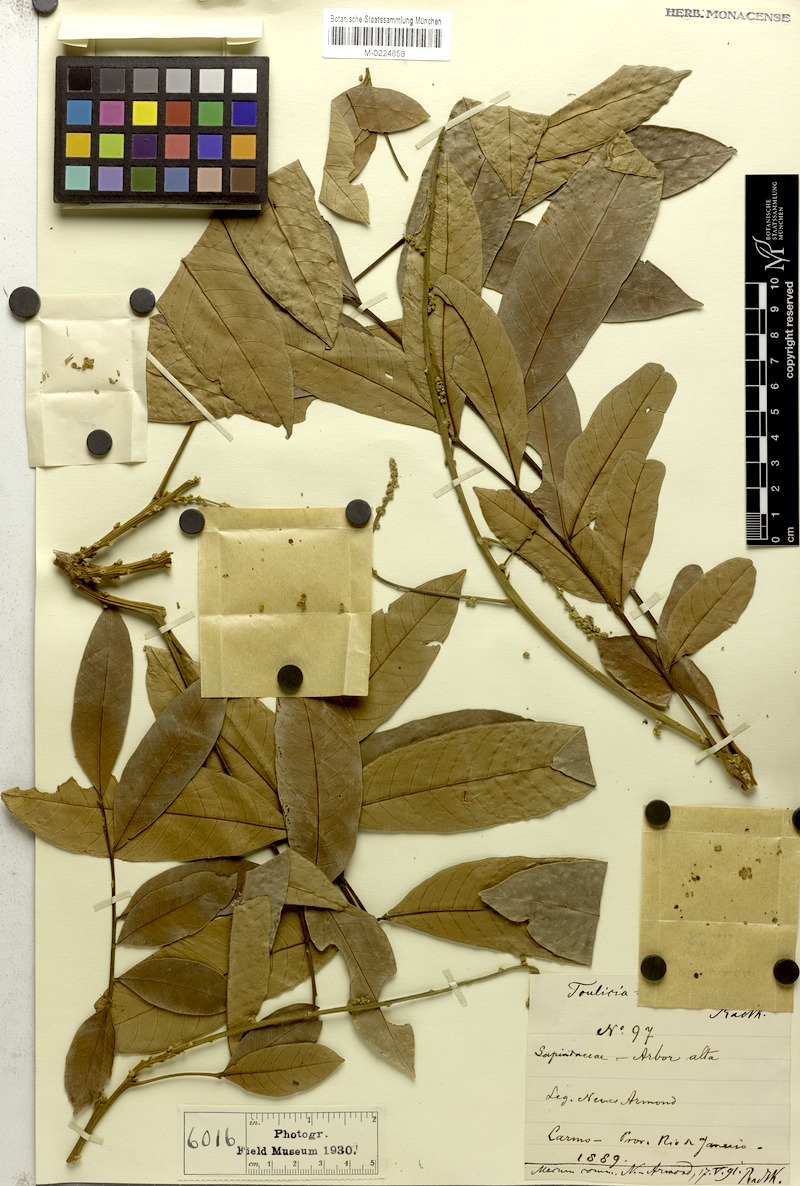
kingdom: Plantae
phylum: Tracheophyta
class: Magnoliopsida
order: Sapindales
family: Sapindaceae
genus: Toulicia
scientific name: Toulicia subsquamulata
